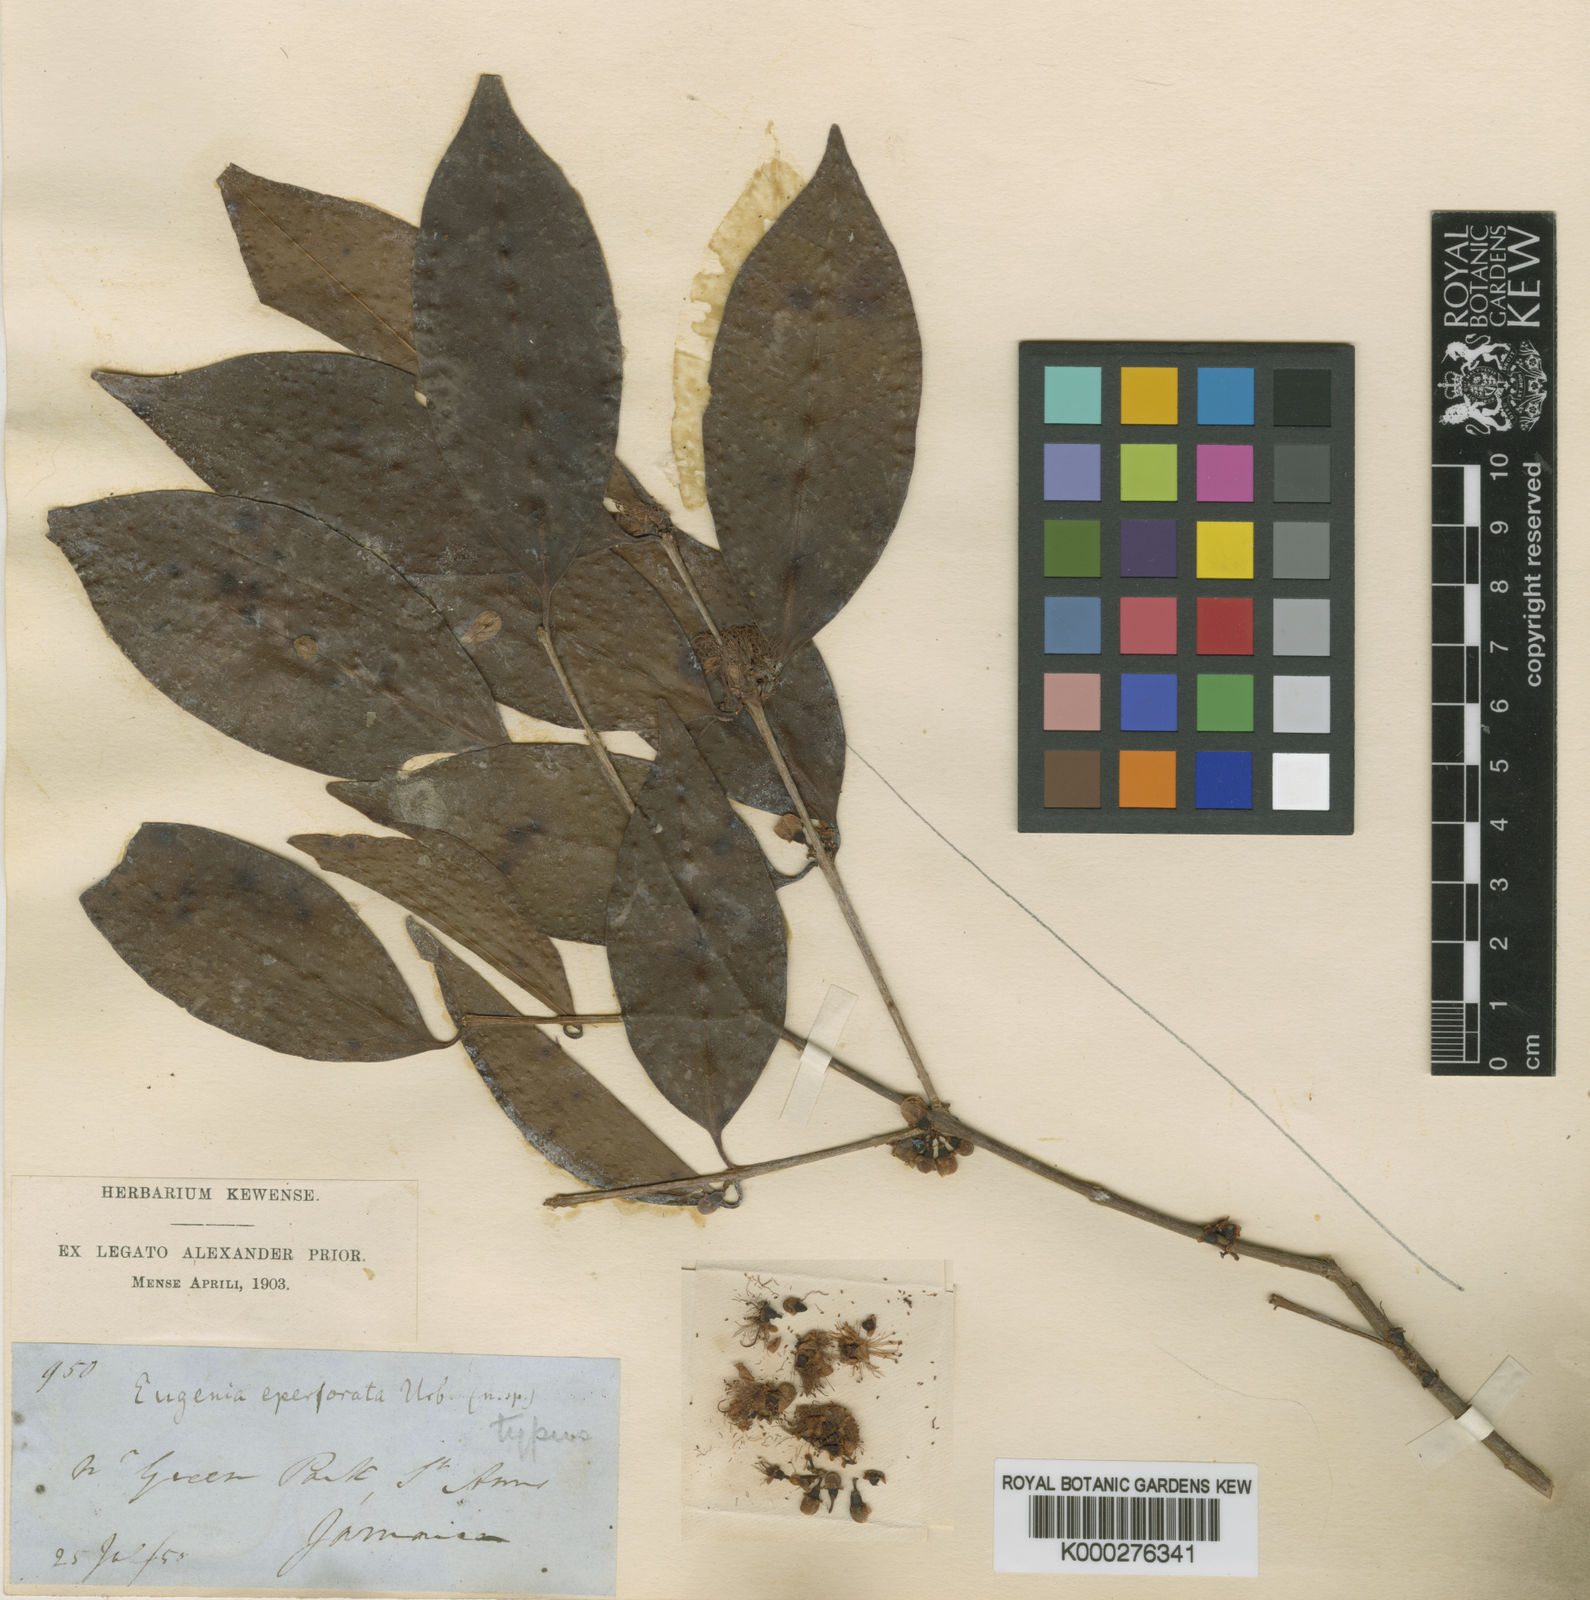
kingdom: Plantae
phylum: Tracheophyta
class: Magnoliopsida
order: Myrtales
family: Myrtaceae
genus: Eugenia
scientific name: Eugenia eperforata
